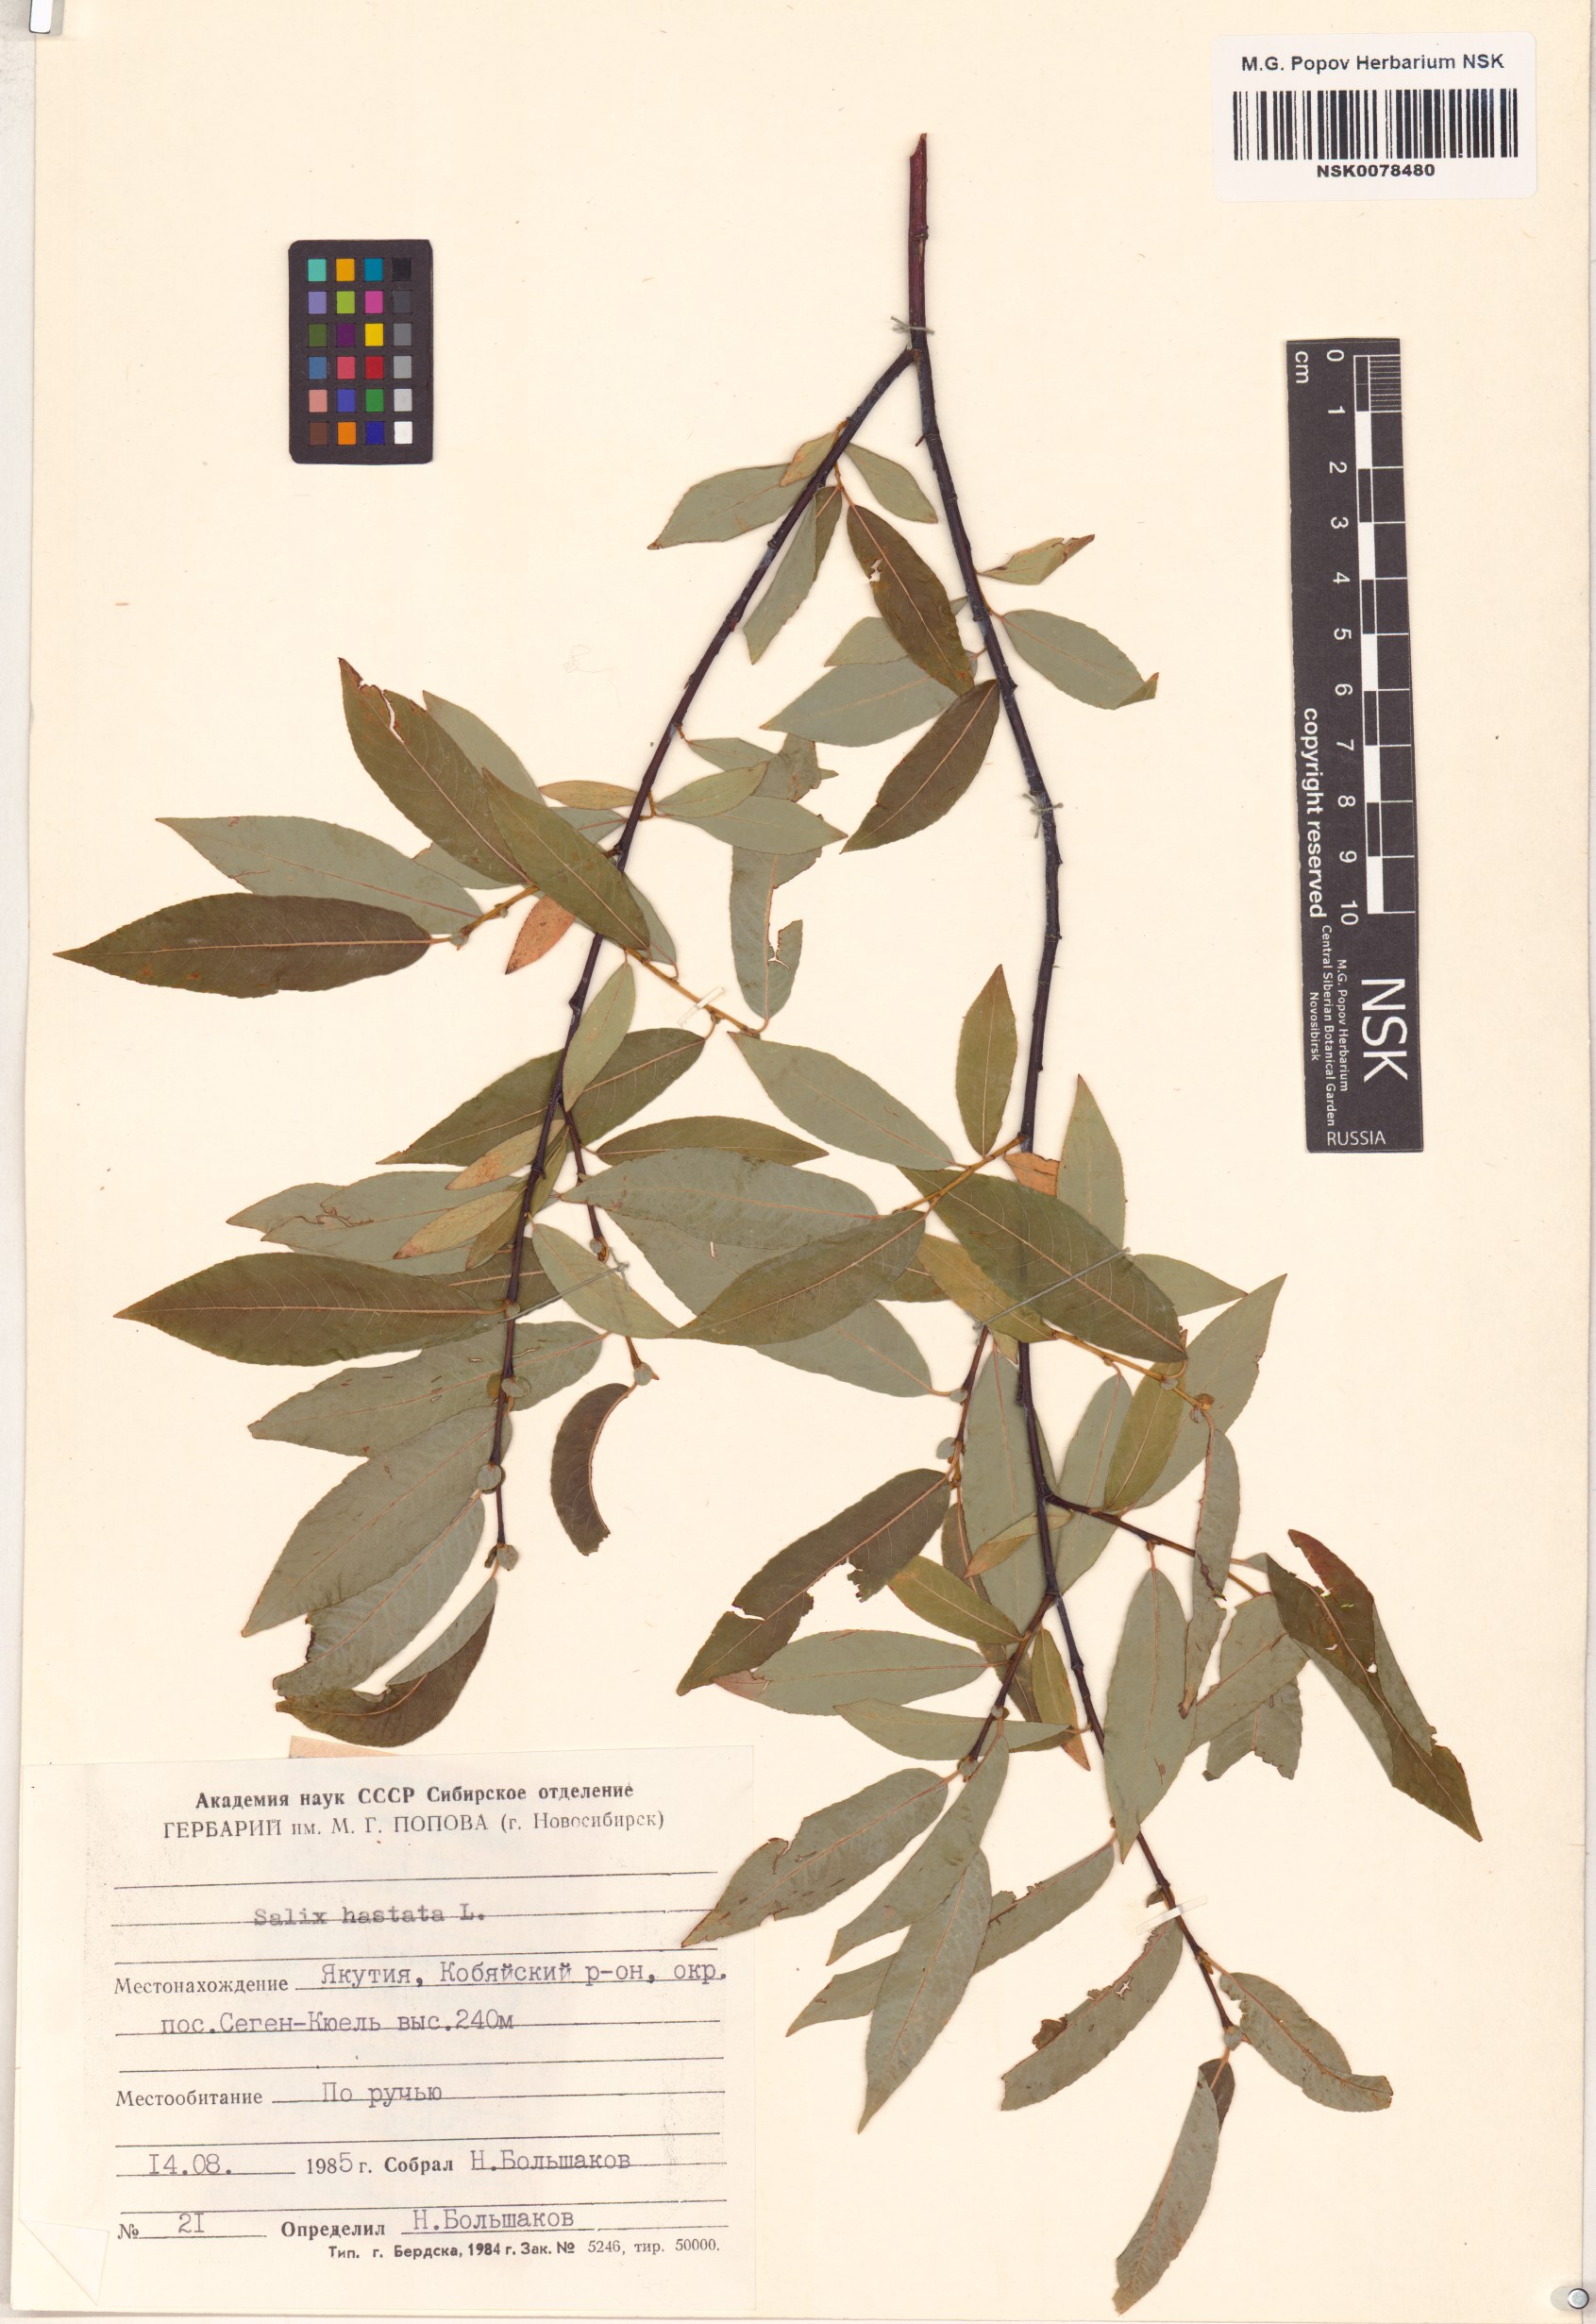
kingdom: Plantae
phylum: Tracheophyta
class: Magnoliopsida
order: Malpighiales
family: Salicaceae
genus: Salix
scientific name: Salix hastata
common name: Halberd willow
